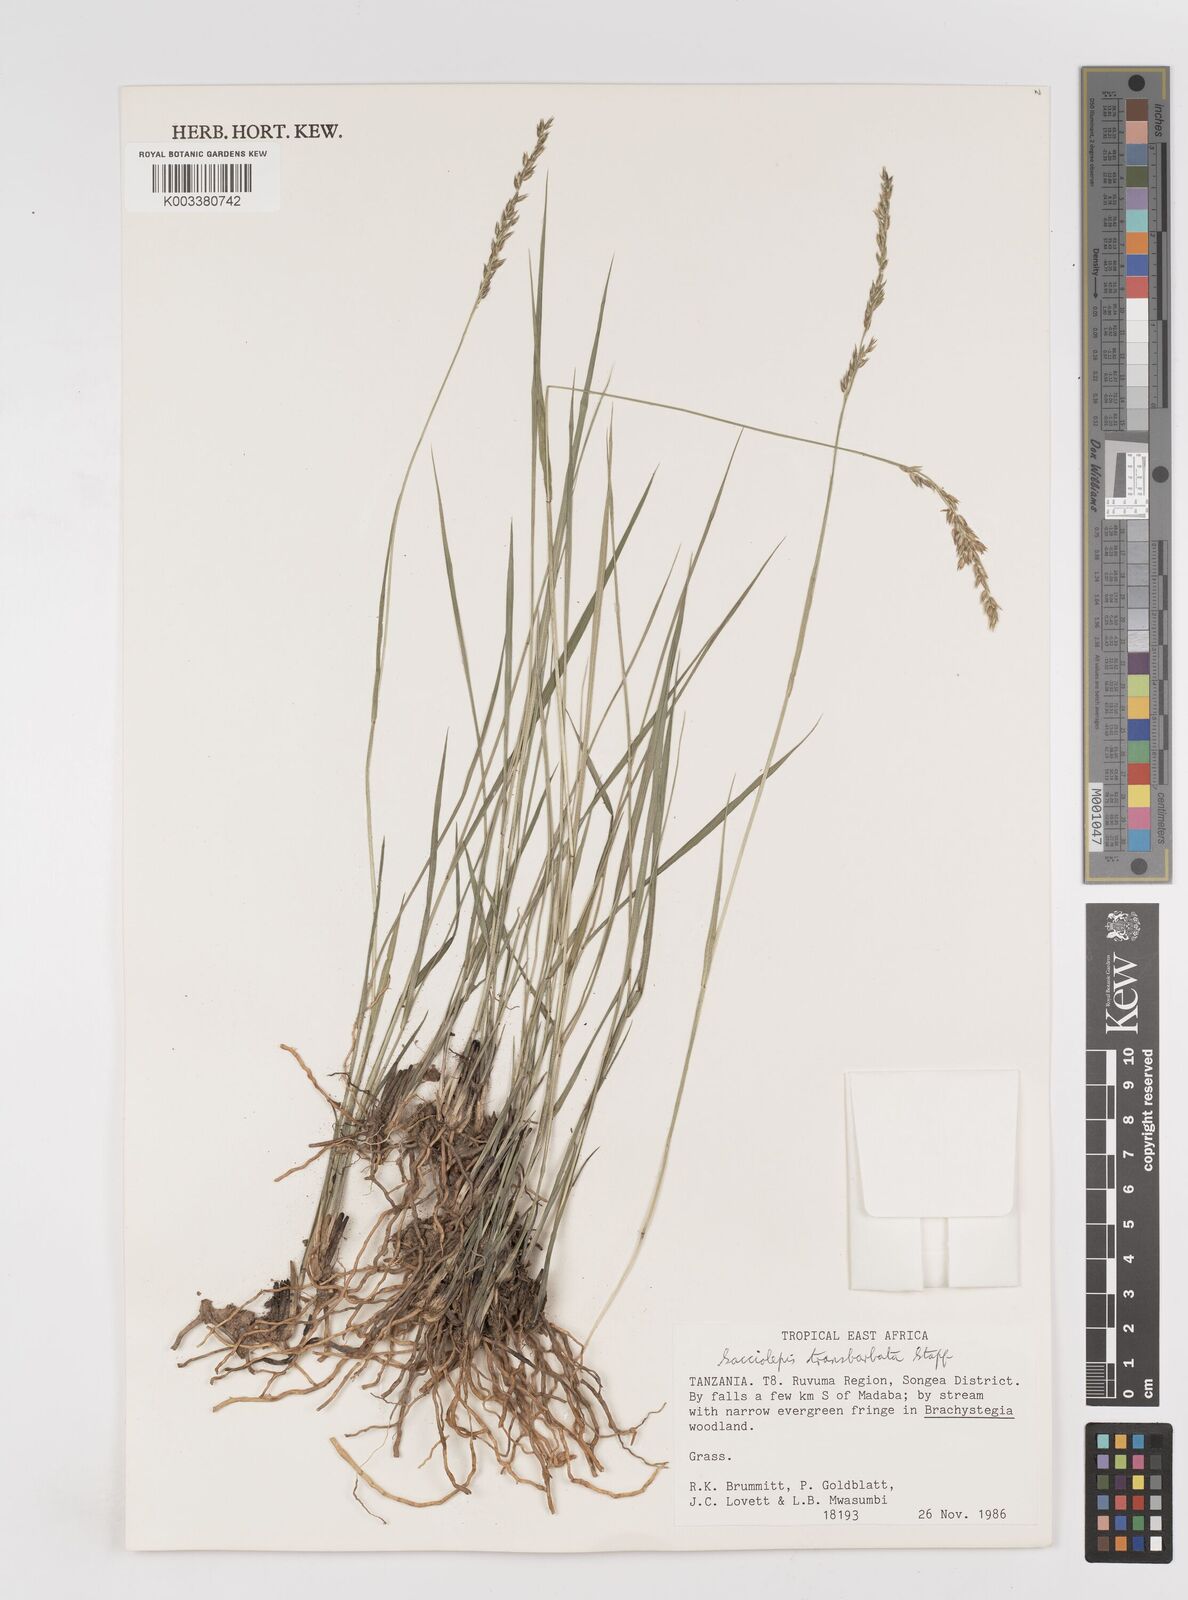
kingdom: Plantae
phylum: Tracheophyta
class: Liliopsida
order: Poales
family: Poaceae
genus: Sacciolepis
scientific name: Sacciolepis transbarbata
